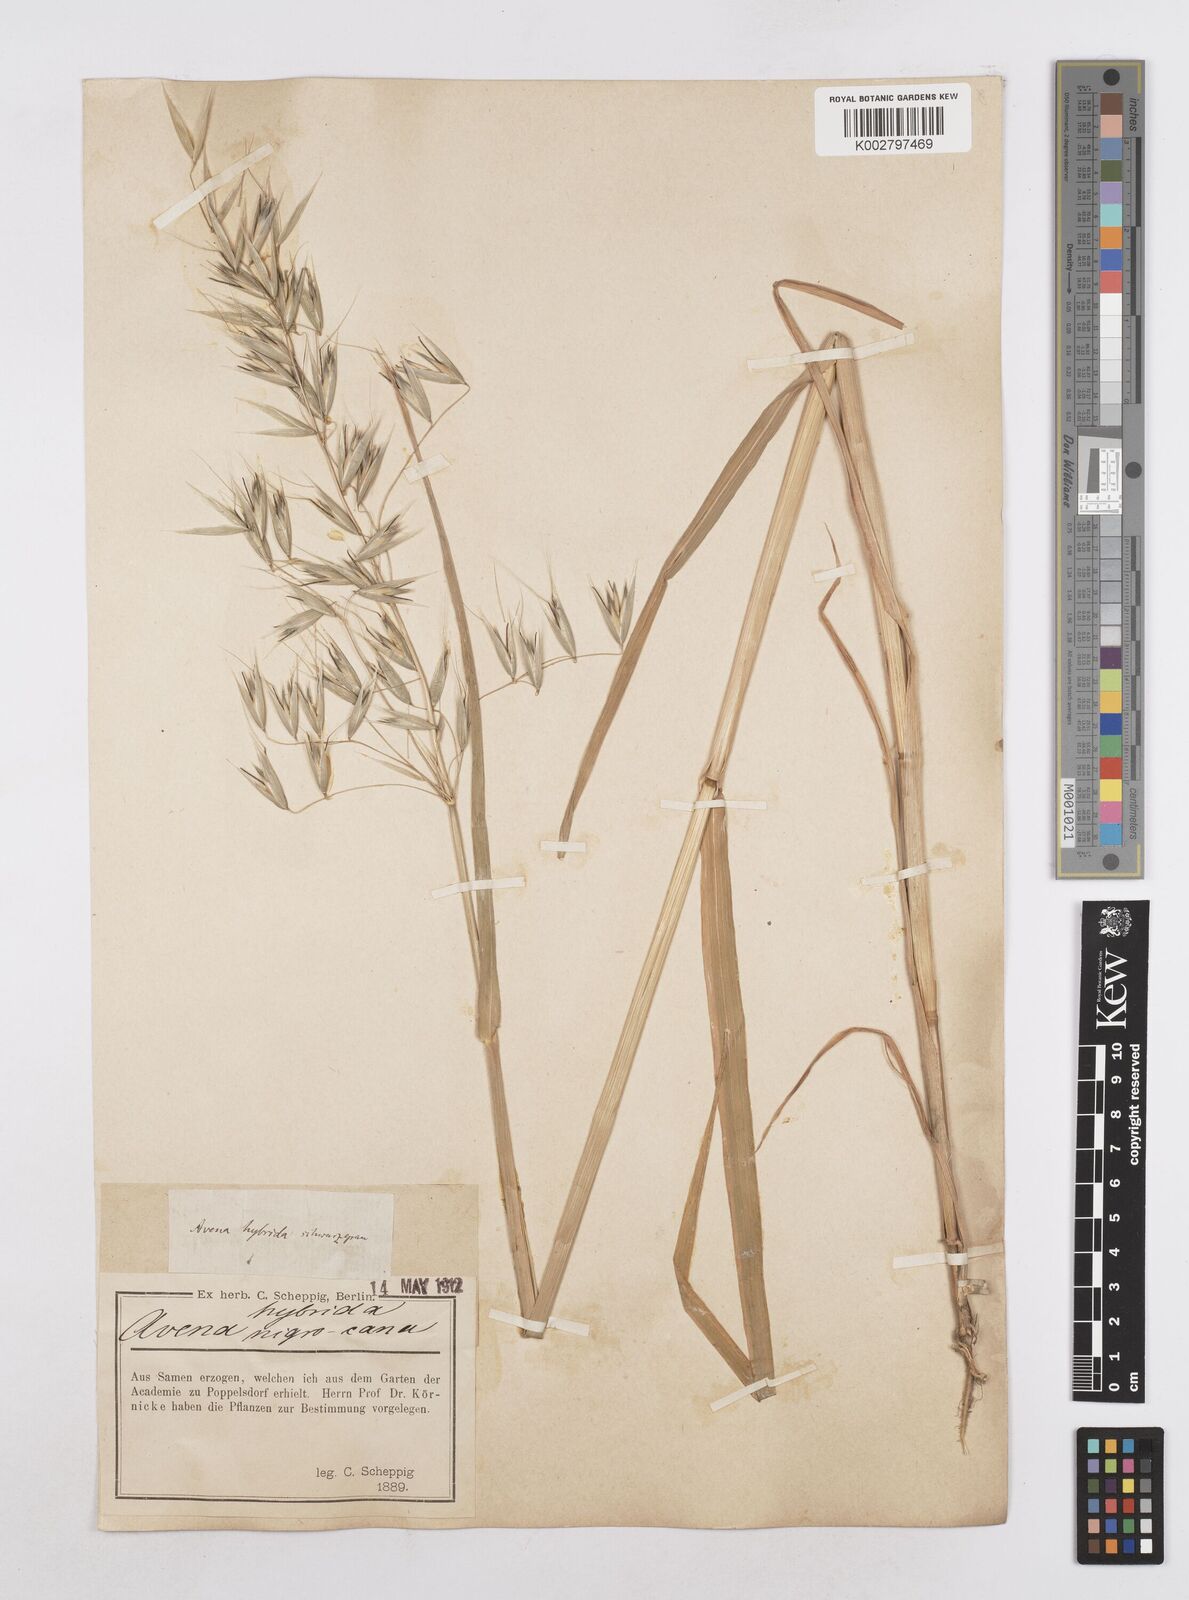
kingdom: Plantae
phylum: Tracheophyta
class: Liliopsida
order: Poales
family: Poaceae
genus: Avena
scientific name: Avena fatua
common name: Wild oat
